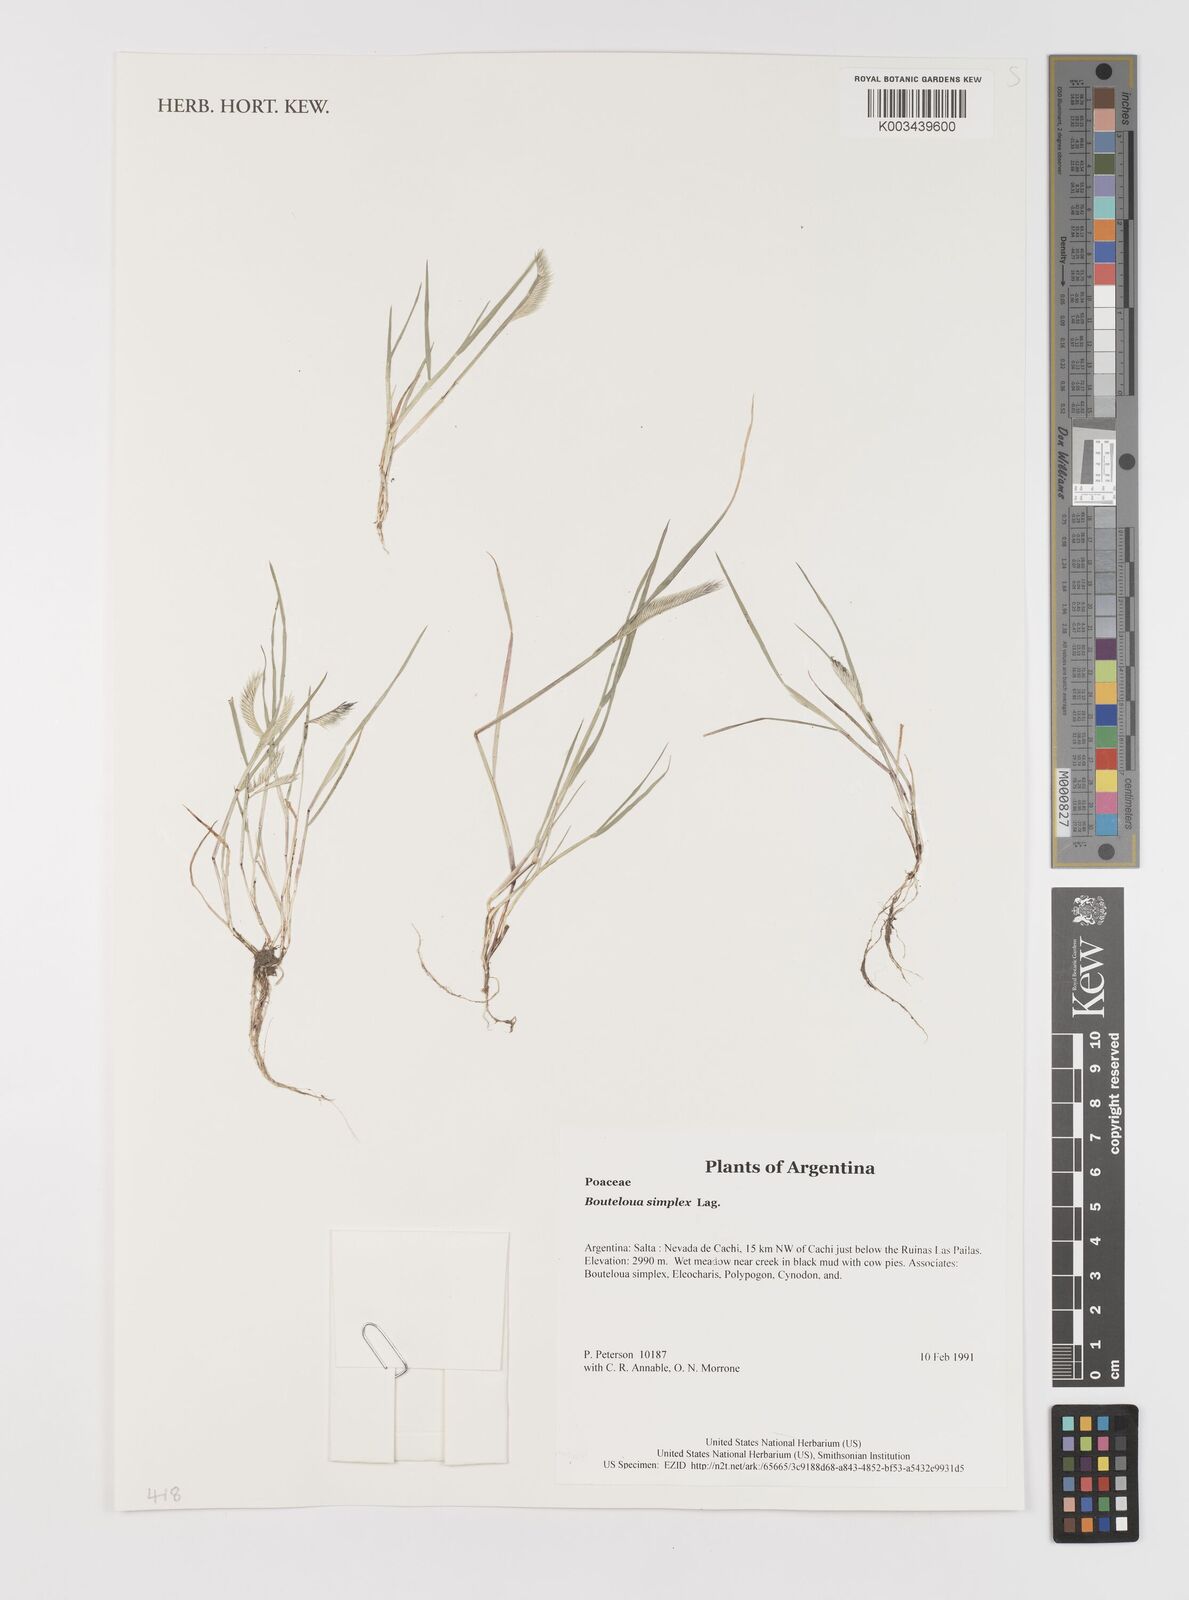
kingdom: Plantae
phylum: Tracheophyta
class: Liliopsida
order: Poales
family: Poaceae
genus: Bouteloua
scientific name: Bouteloua
